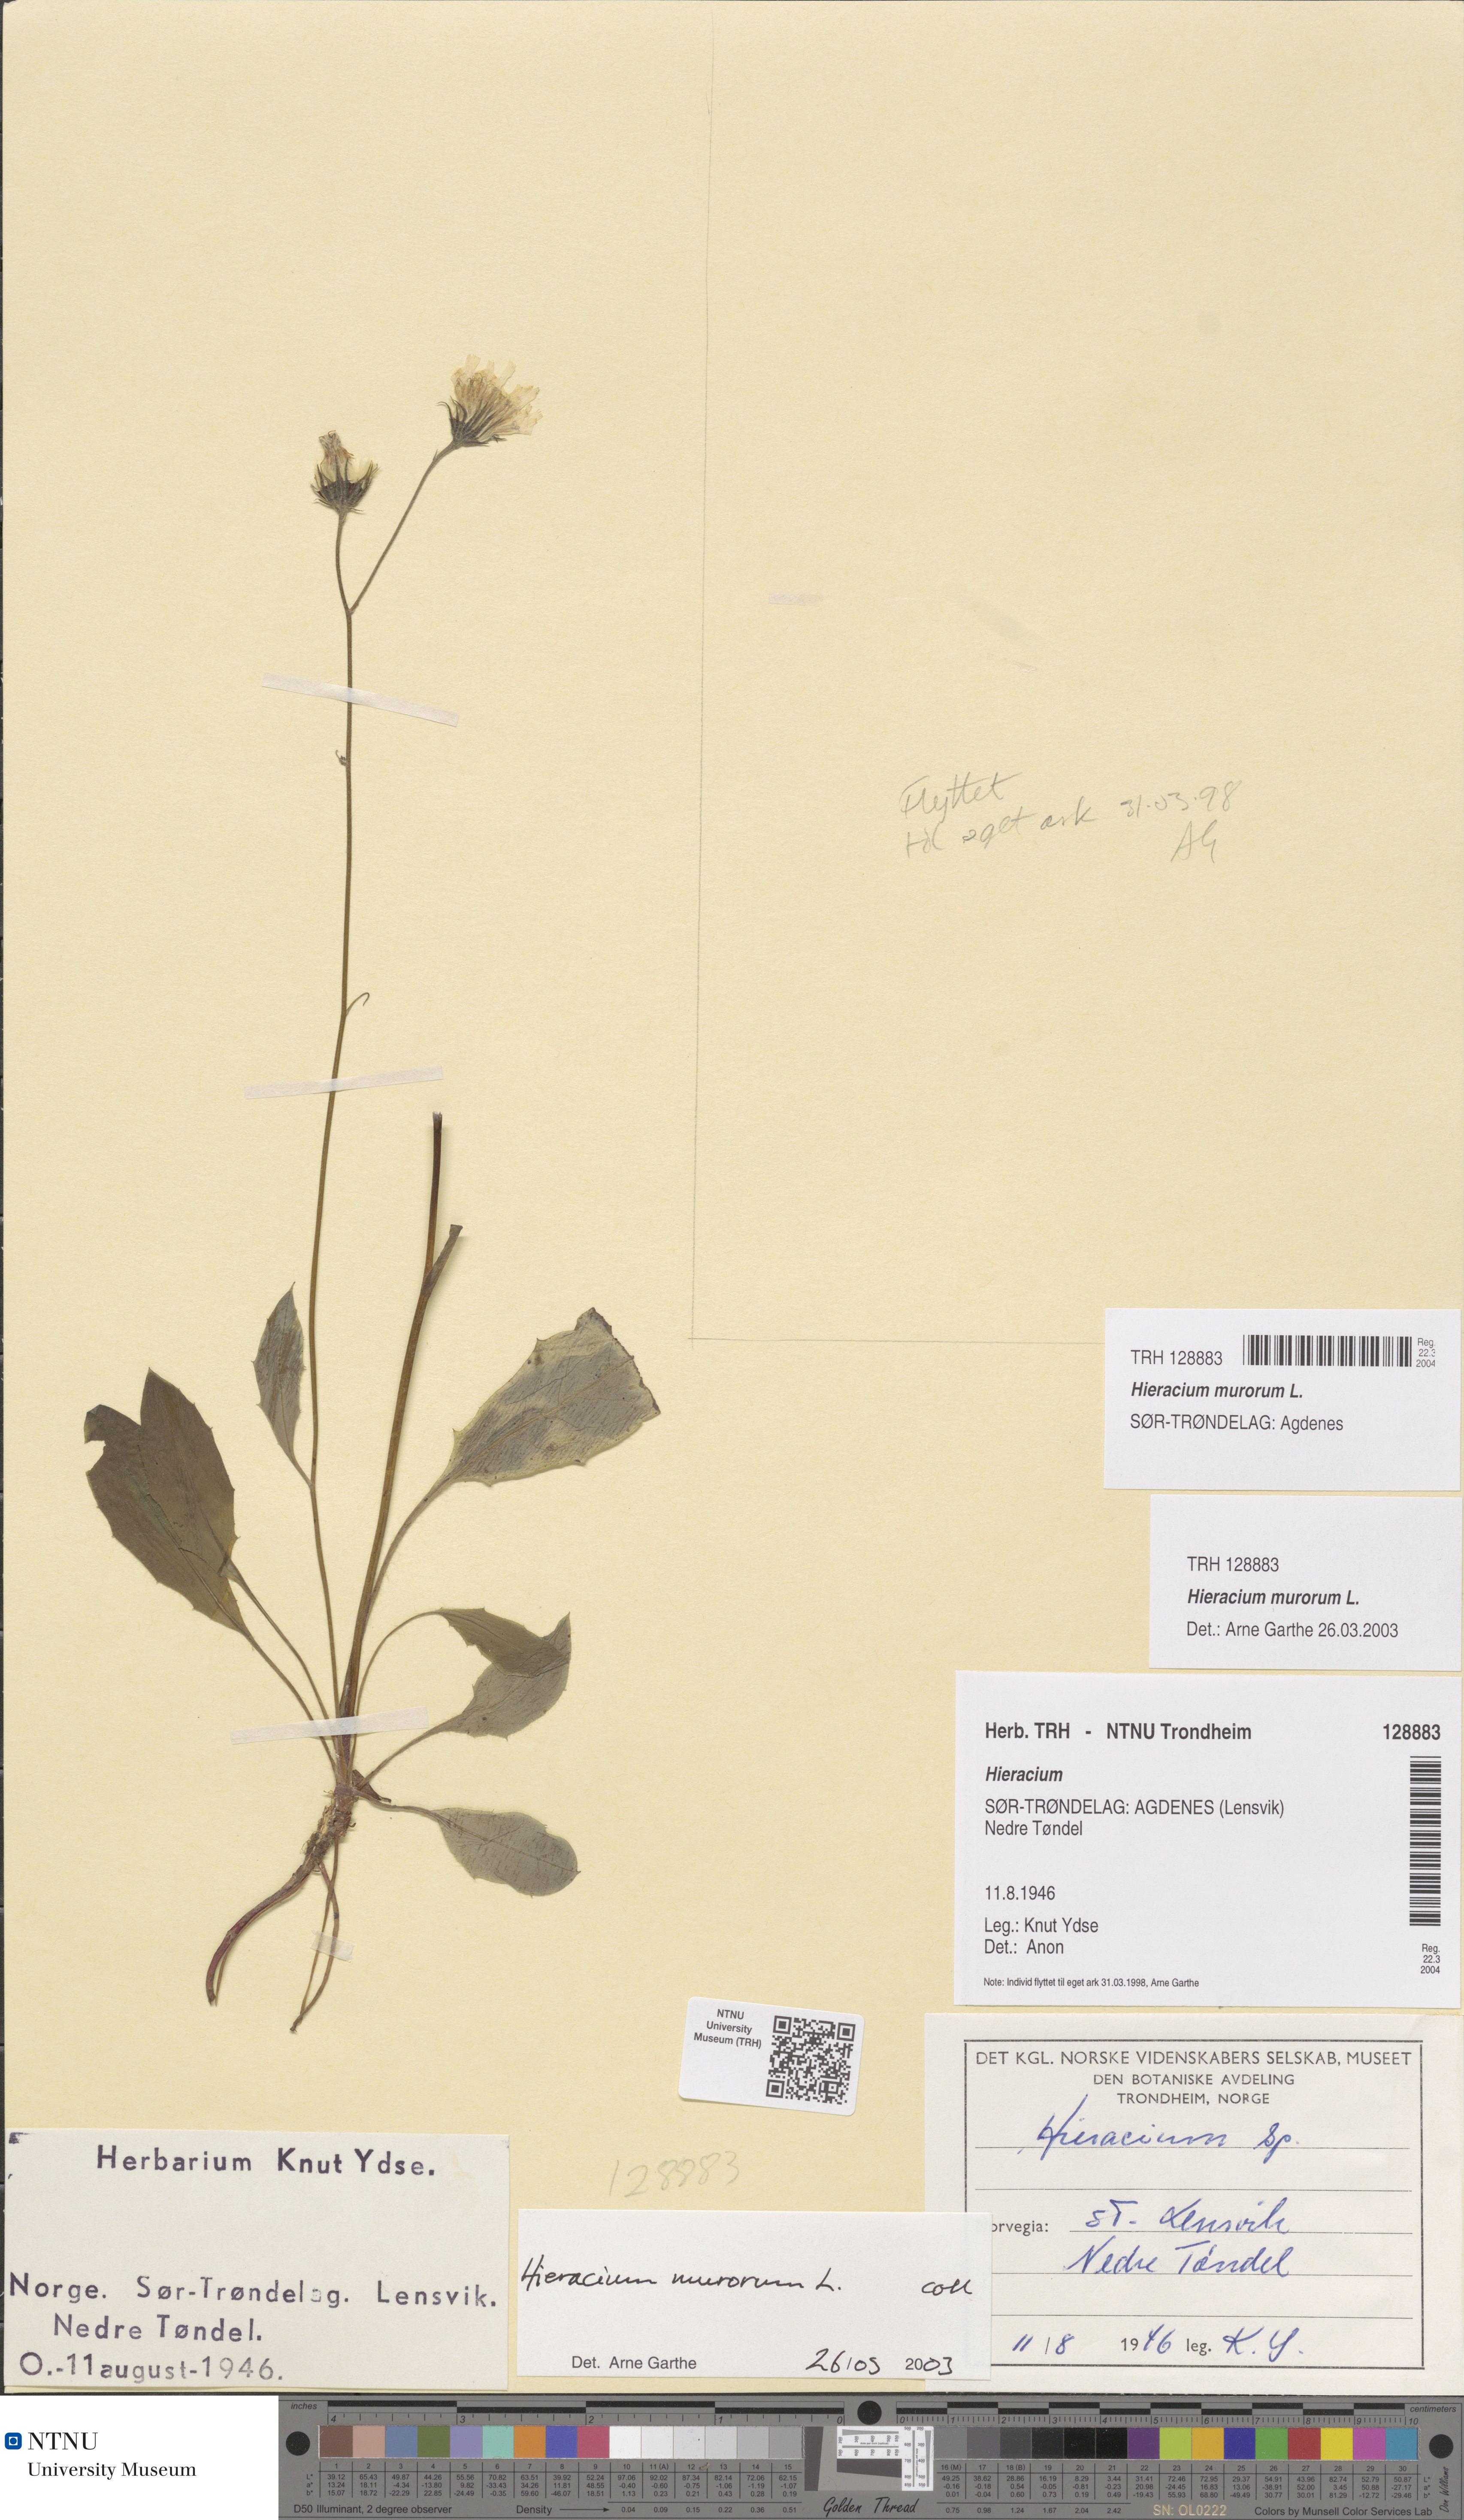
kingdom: Plantae
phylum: Tracheophyta
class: Magnoliopsida
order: Asterales
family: Asteraceae
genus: Hieracium
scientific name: Hieracium murorum
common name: Wall hawkweed
